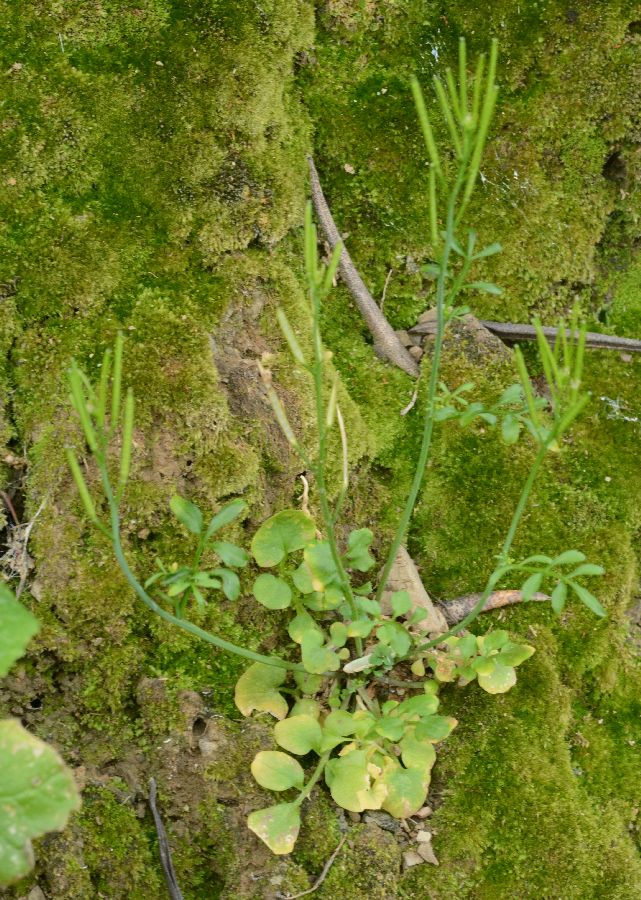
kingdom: Plantae
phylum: Tracheophyta
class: Magnoliopsida
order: Brassicales
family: Brassicaceae
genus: Cardamine
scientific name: Cardamine hirsuta
